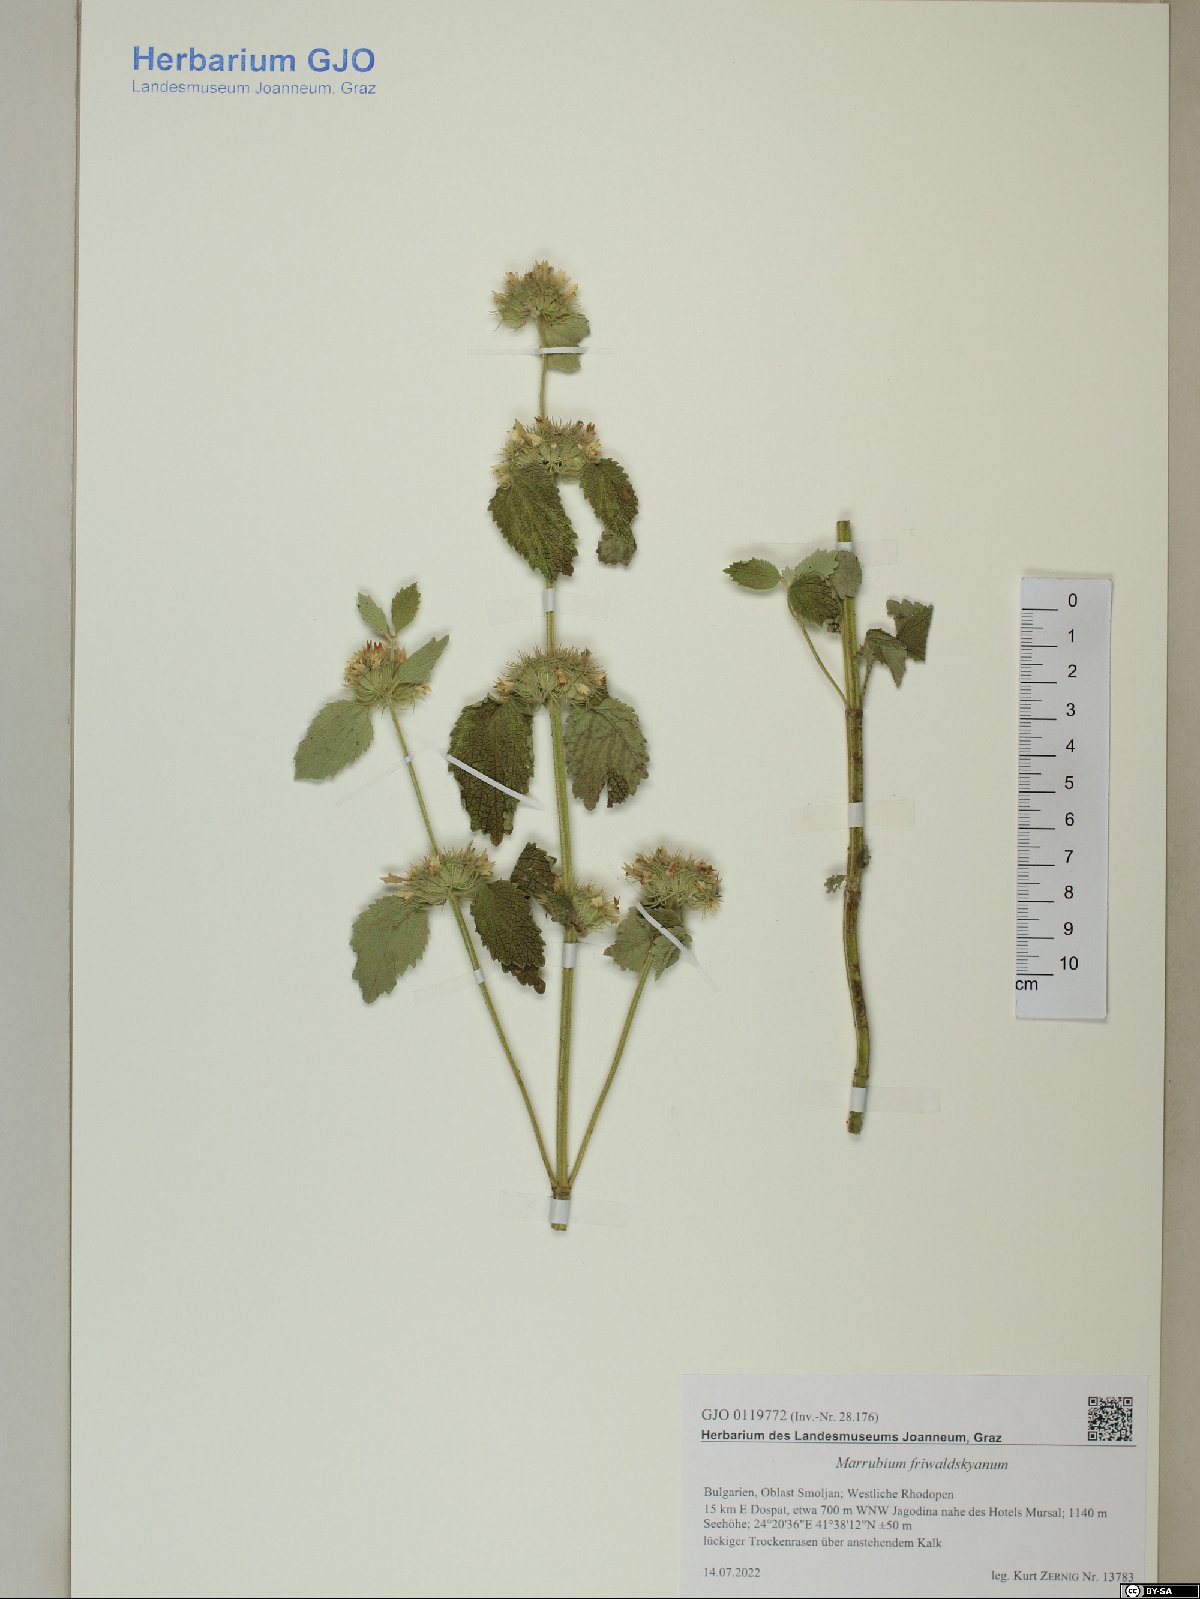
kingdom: Plantae
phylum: Tracheophyta
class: Magnoliopsida
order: Lamiales
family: Lamiaceae
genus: Marrubium
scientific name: Marrubium friwaldskyanum
